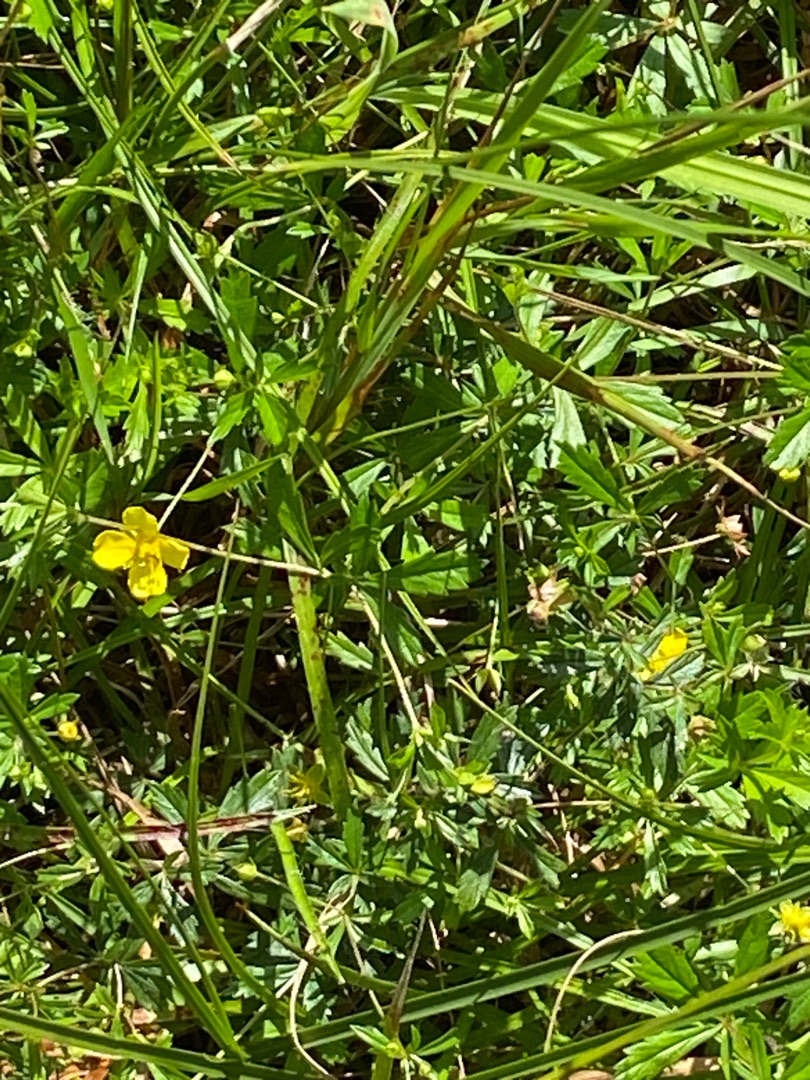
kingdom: Plantae
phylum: Tracheophyta
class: Magnoliopsida
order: Rosales
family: Rosaceae
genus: Potentilla
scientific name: Potentilla erecta
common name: Tormentil
